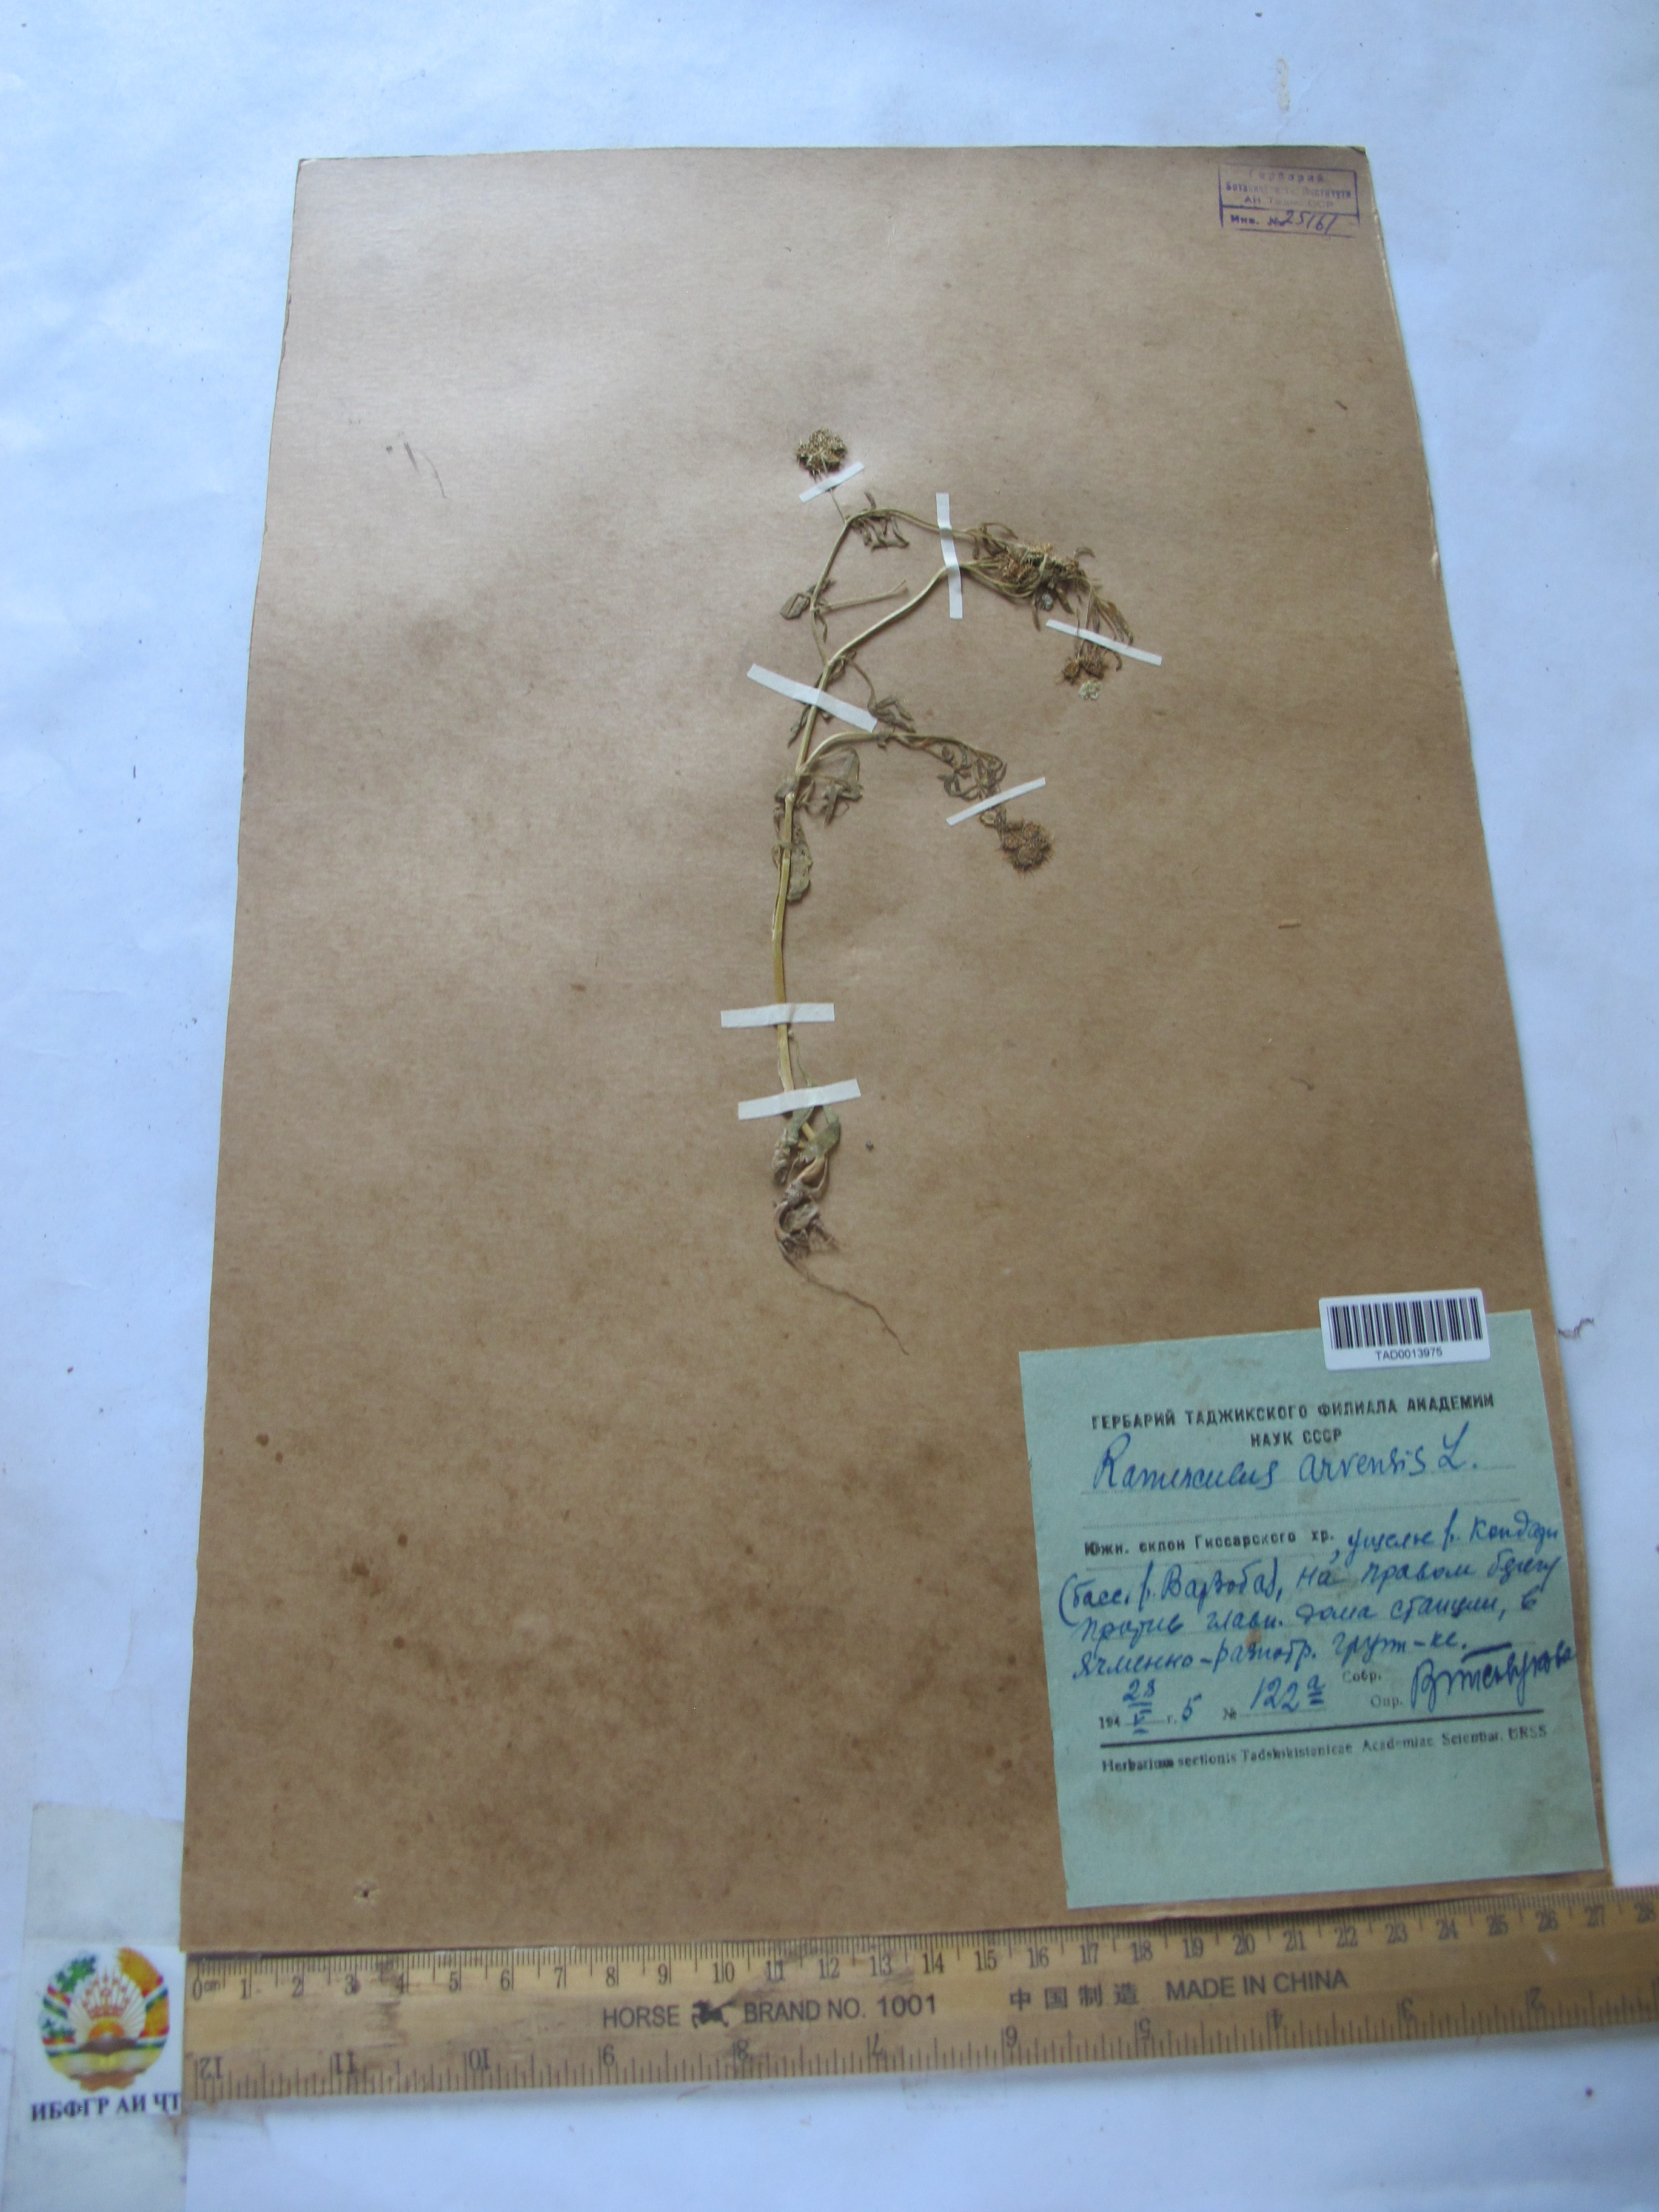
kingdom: Plantae
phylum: Tracheophyta
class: Magnoliopsida
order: Ranunculales
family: Ranunculaceae
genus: Ranunculus
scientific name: Ranunculus arvensis
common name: Corn buttercup
